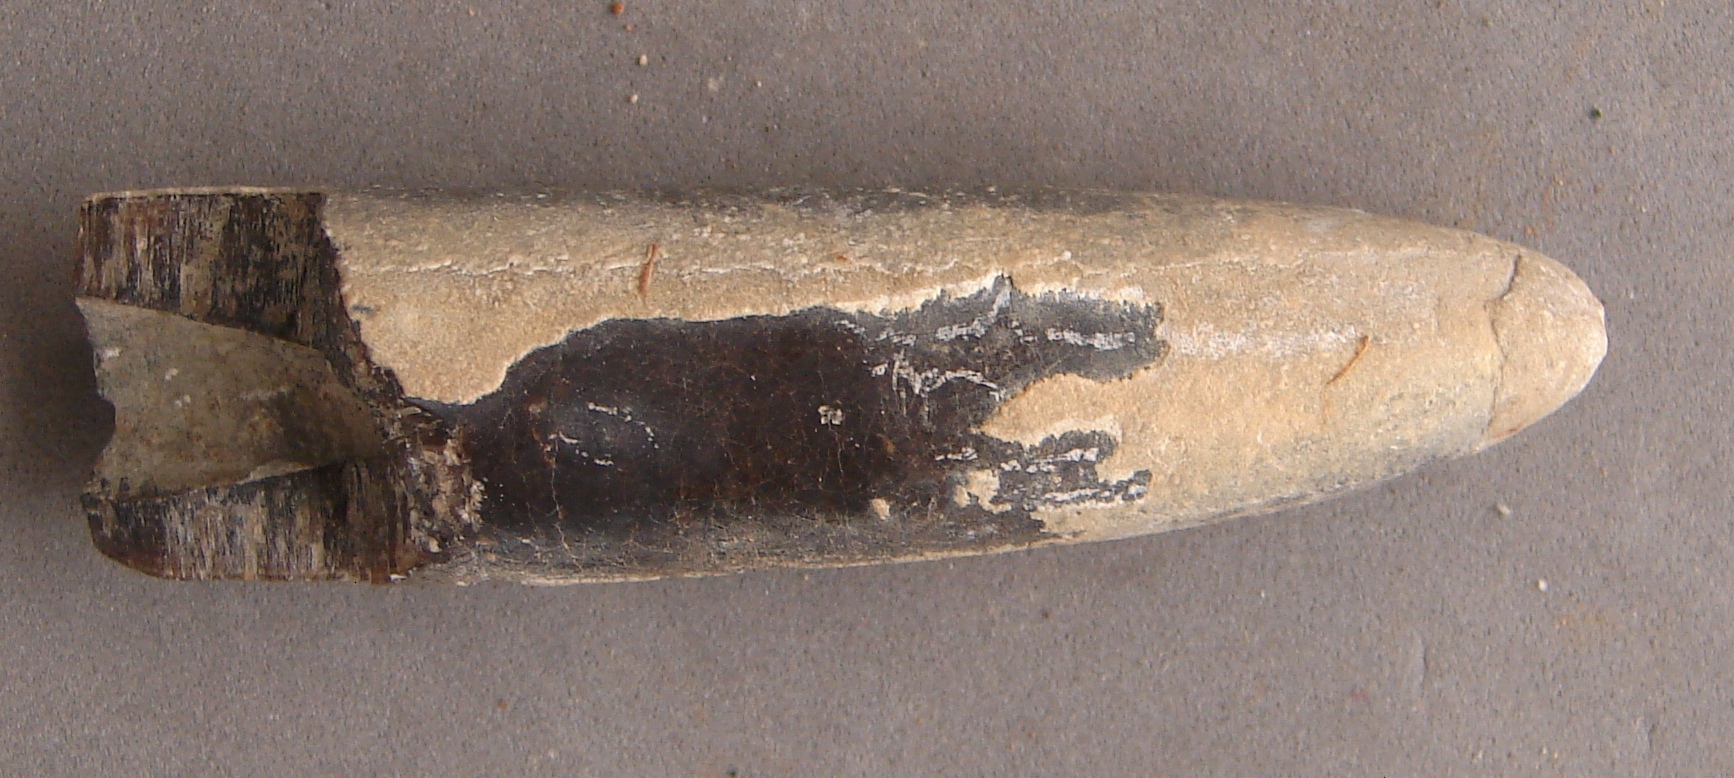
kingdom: Animalia
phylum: Mollusca
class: Cephalopoda
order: Belemnitida
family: Megateuthididae
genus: Dactyloteuthis
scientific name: Dactyloteuthis
